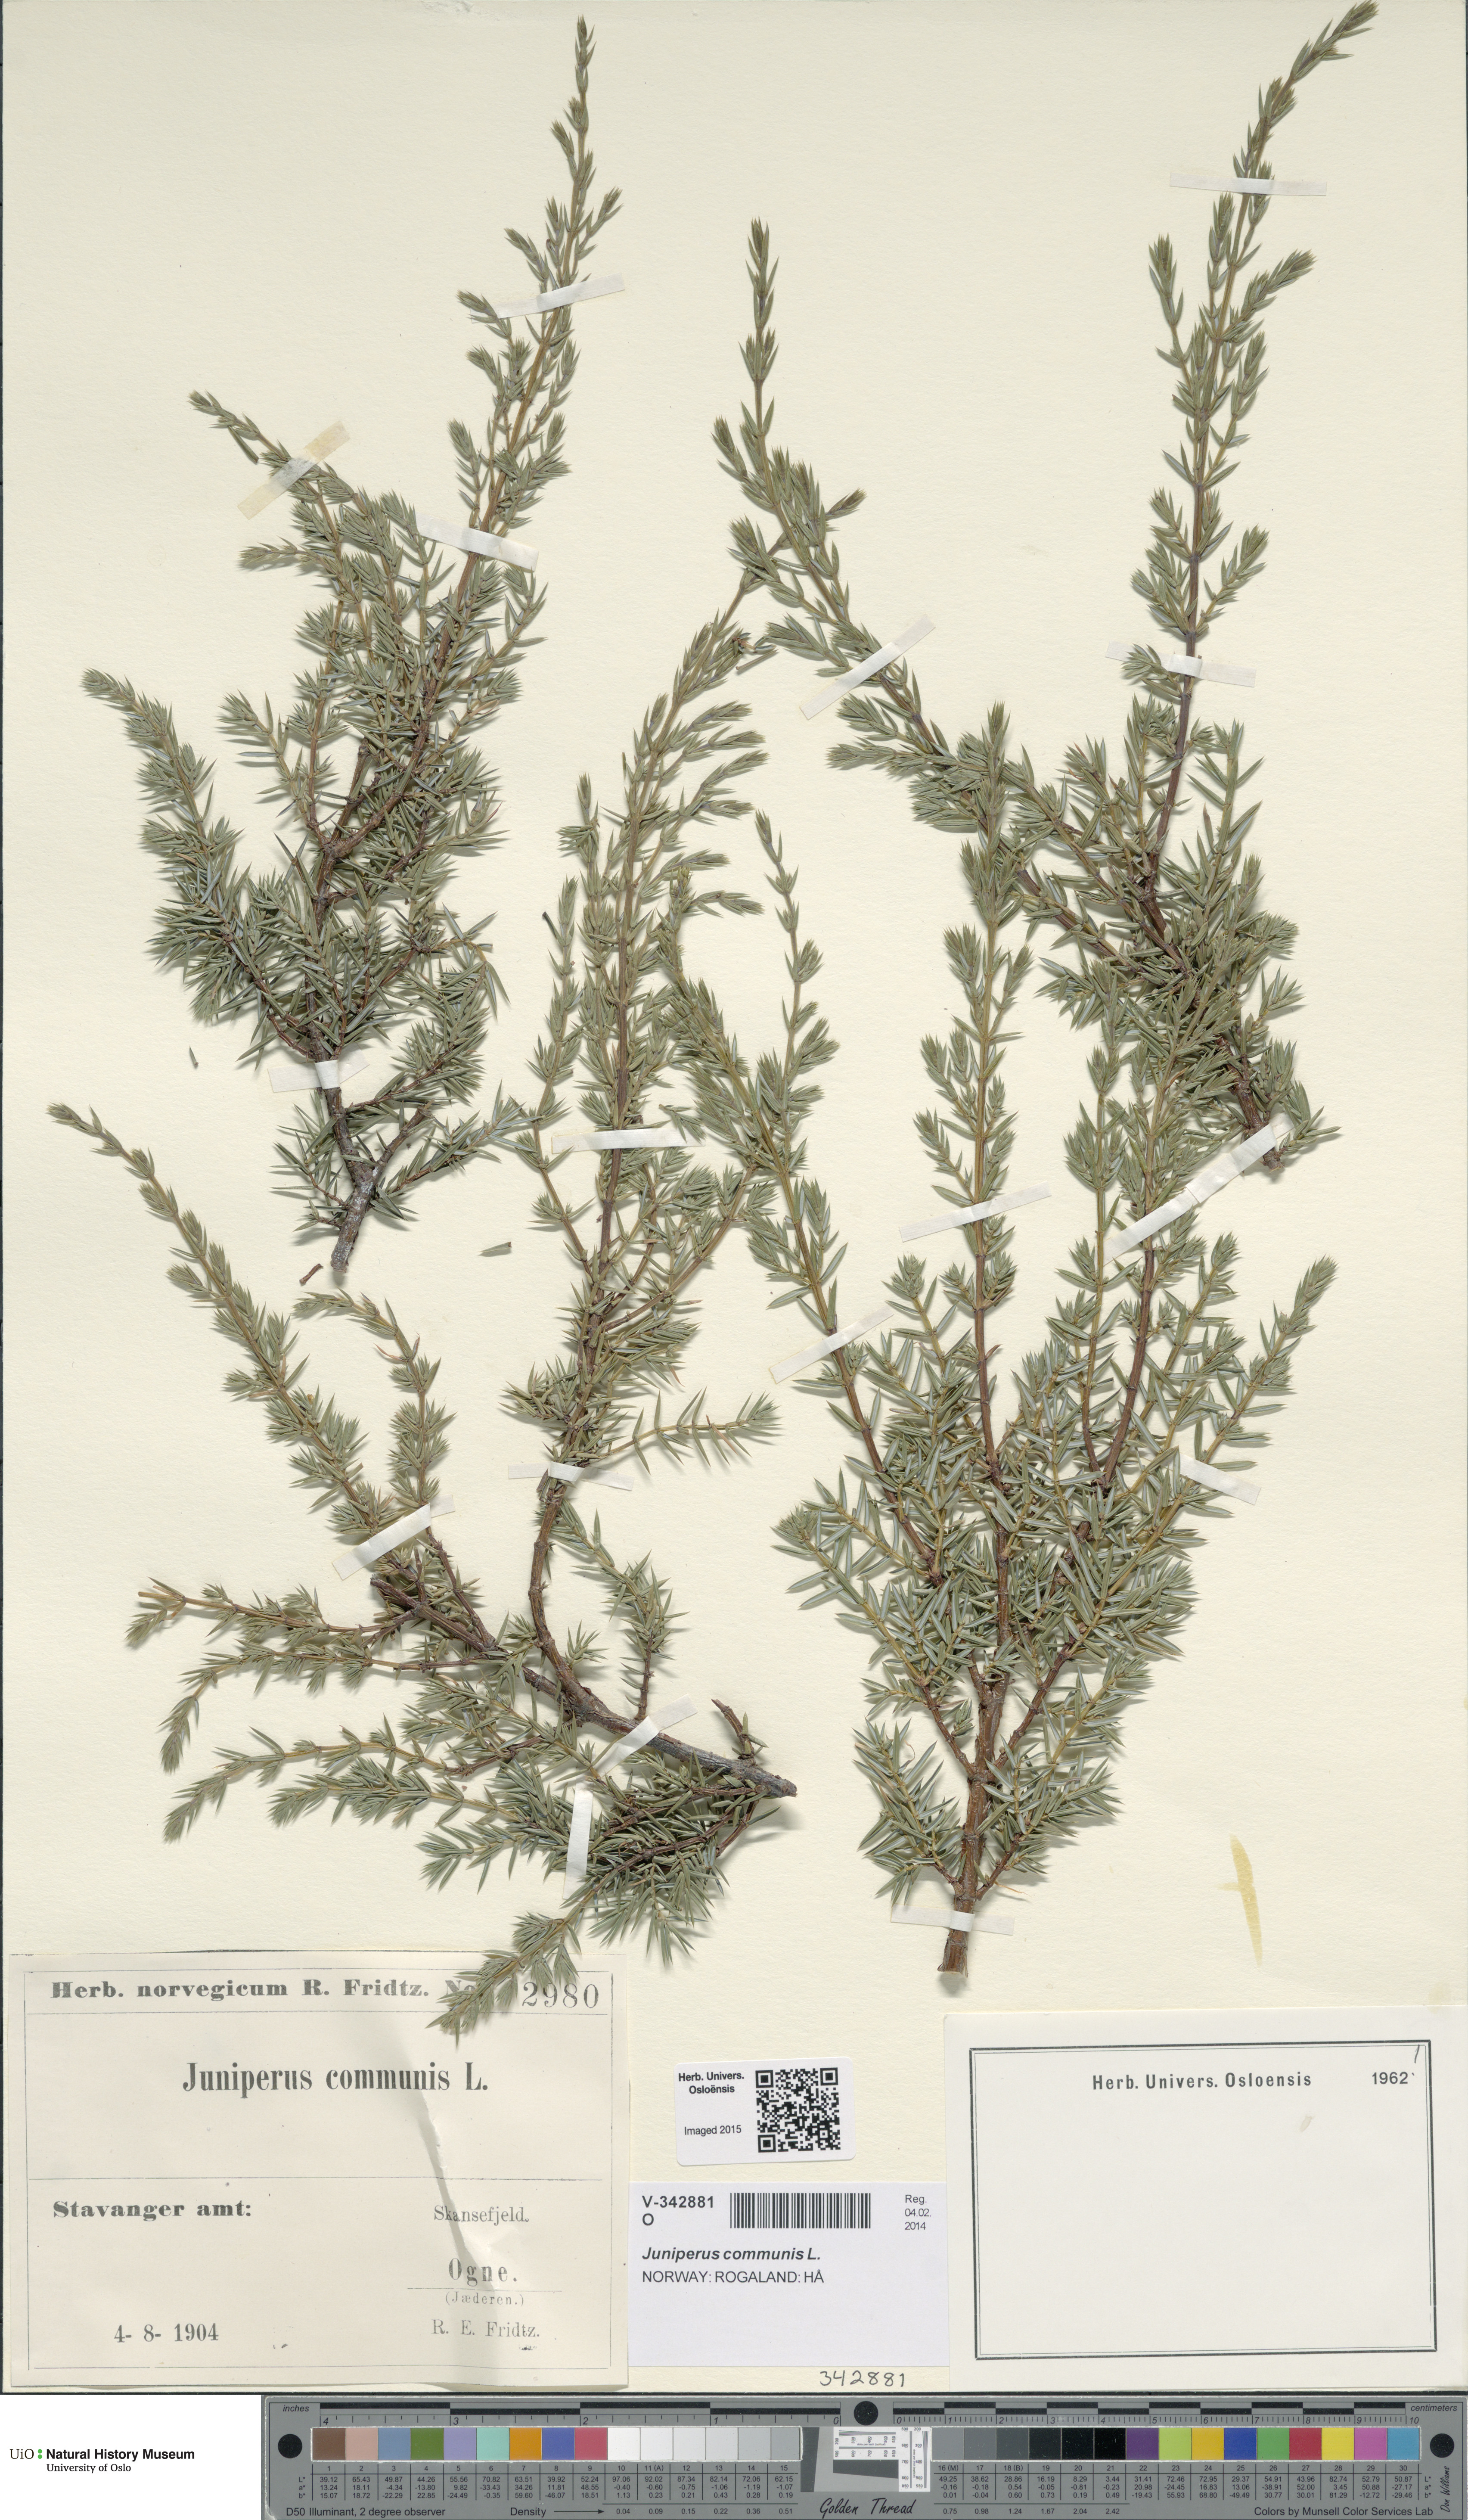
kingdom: Plantae
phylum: Tracheophyta
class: Pinopsida
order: Pinales
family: Cupressaceae
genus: Juniperus
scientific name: Juniperus communis
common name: Common juniper
